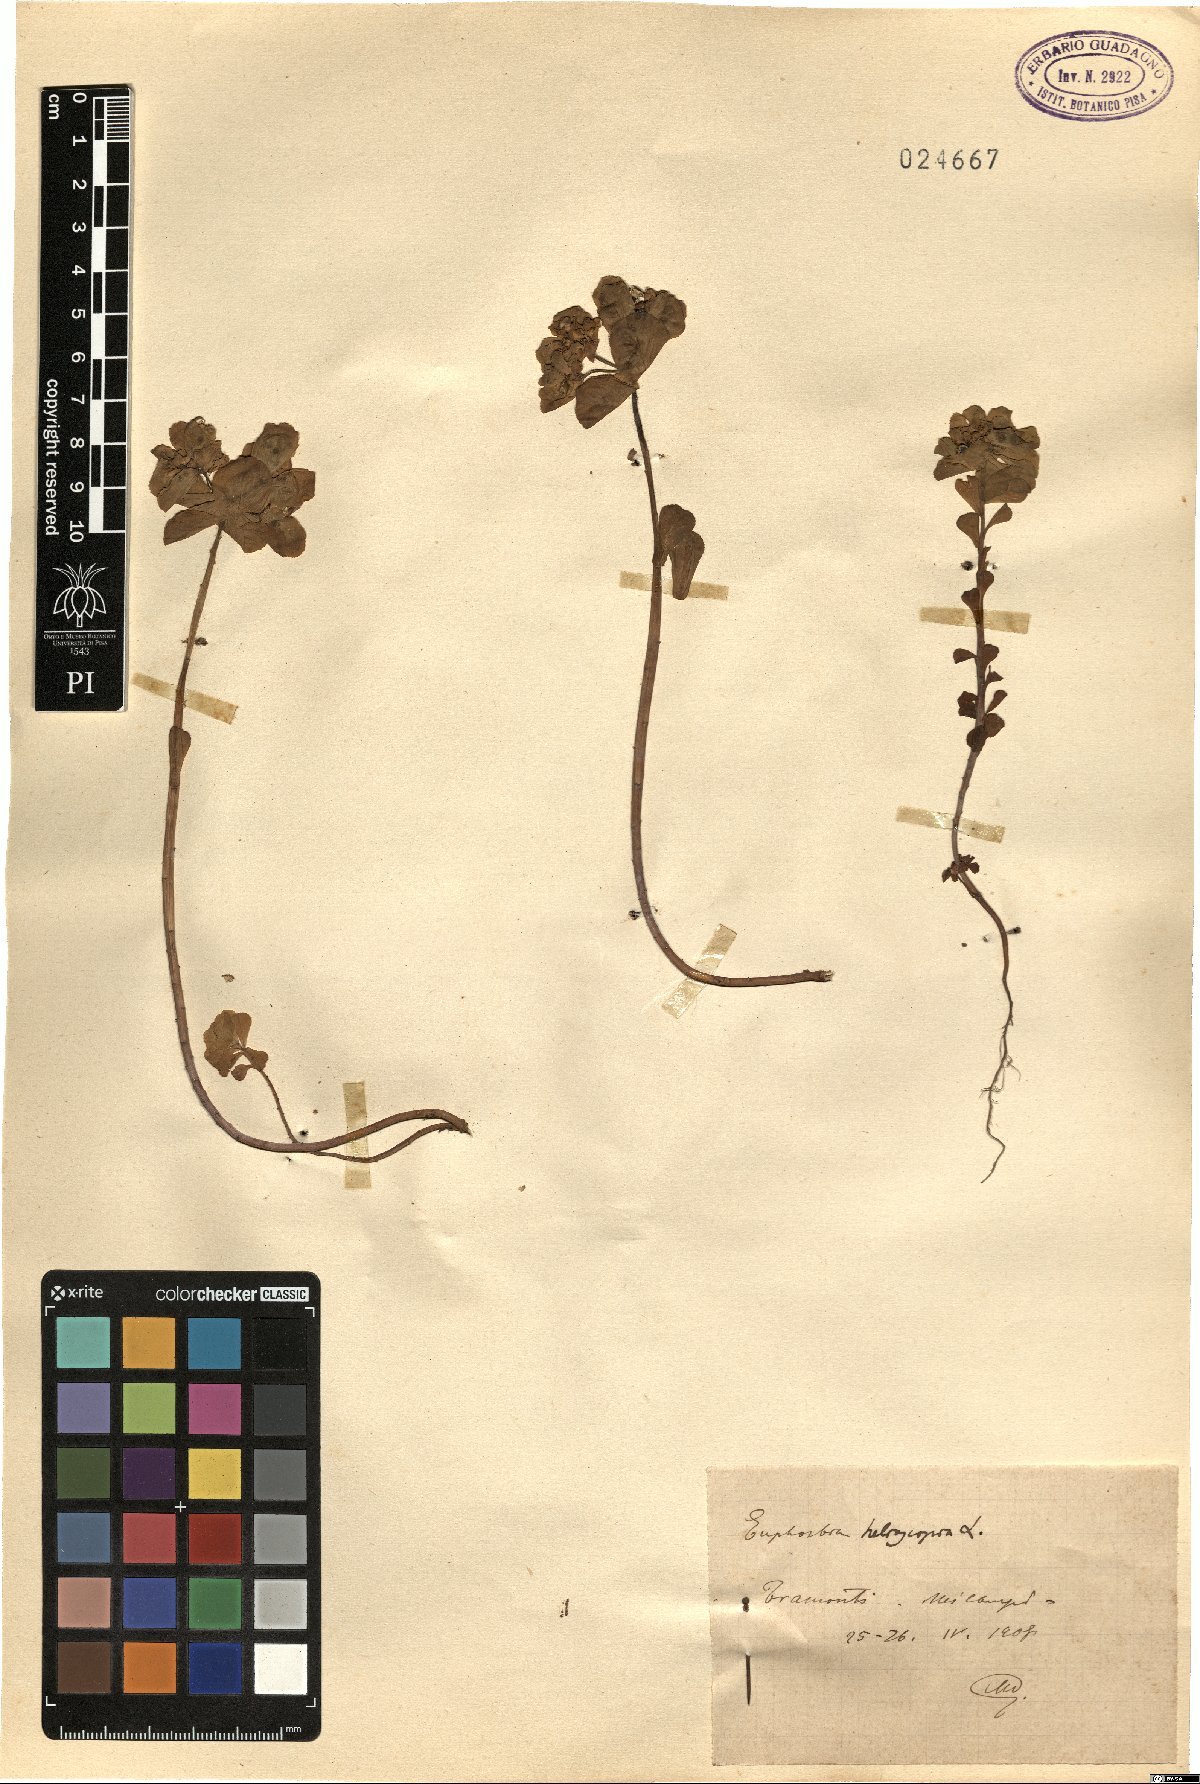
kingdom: Plantae
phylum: Tracheophyta
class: Magnoliopsida
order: Malpighiales
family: Euphorbiaceae
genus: Euphorbia
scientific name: Euphorbia helioscopia
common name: Sun spurge
